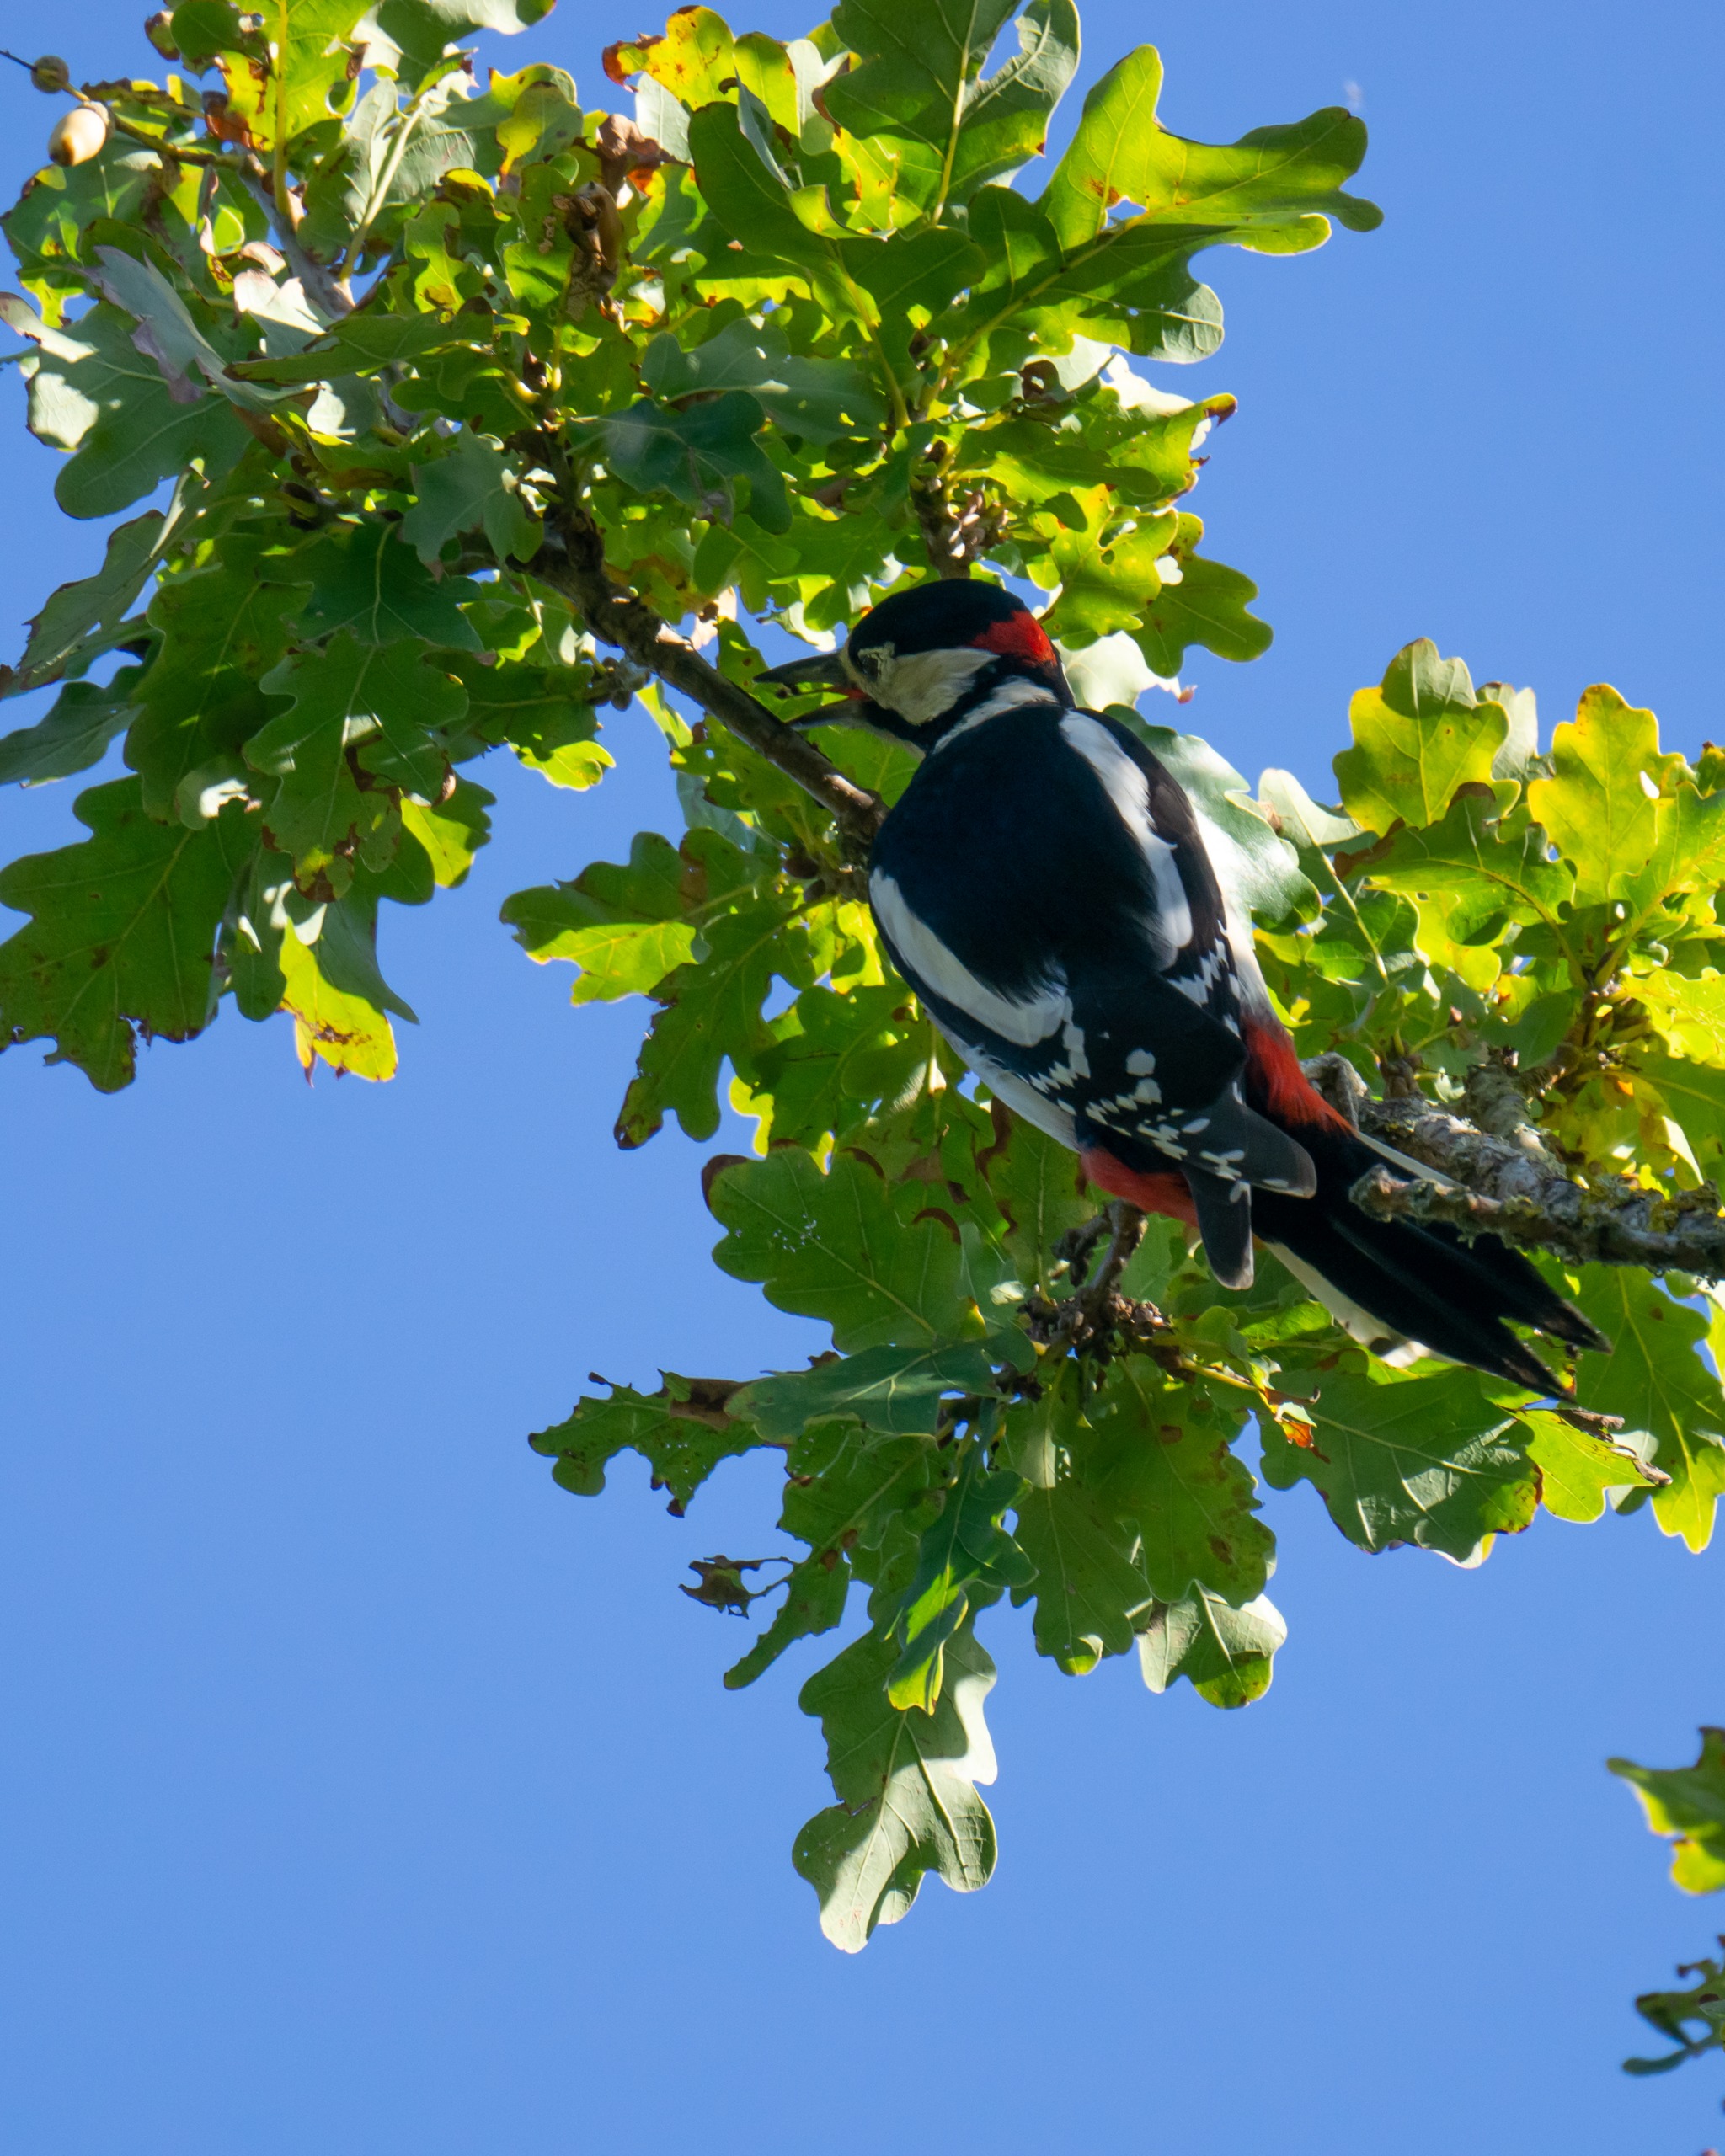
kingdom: Animalia
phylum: Chordata
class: Aves
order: Piciformes
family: Picidae
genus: Dendrocopos
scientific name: Dendrocopos major
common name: Stor flagspætte
